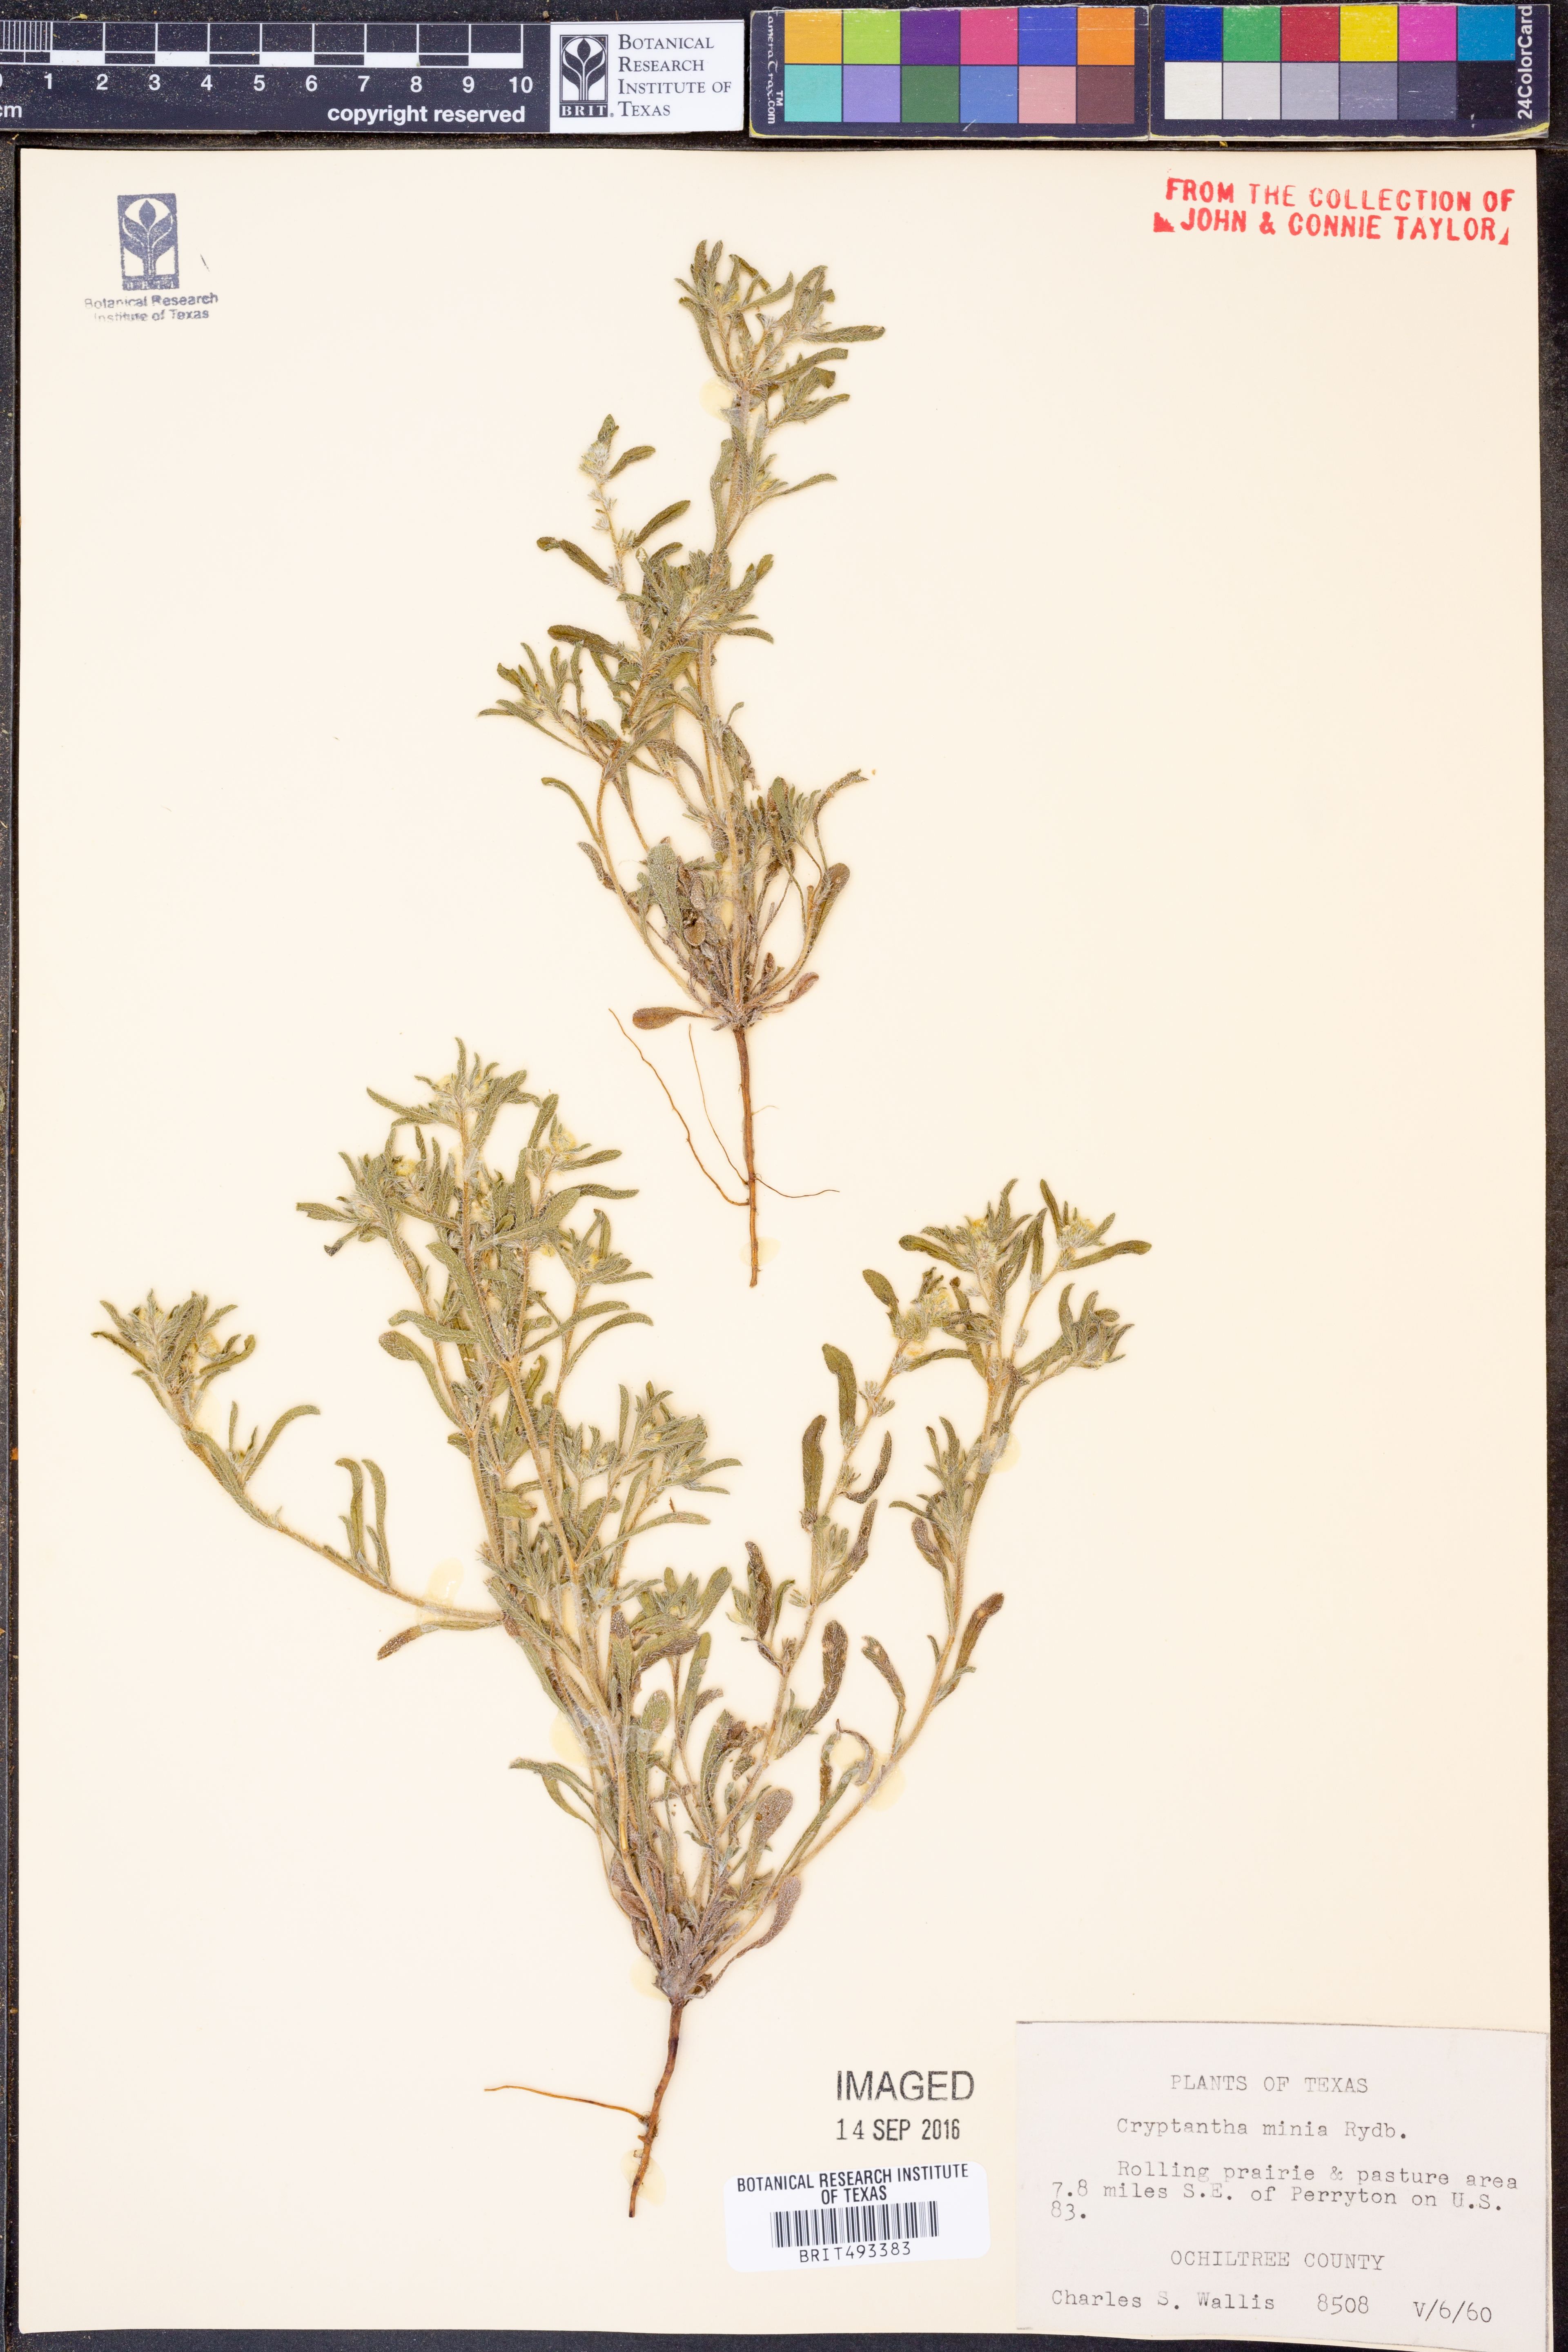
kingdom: Plantae
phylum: Tracheophyta
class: Magnoliopsida
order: Boraginales
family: Boraginaceae
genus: Cryptantha
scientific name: Cryptantha minima
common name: Little cat's-eye
